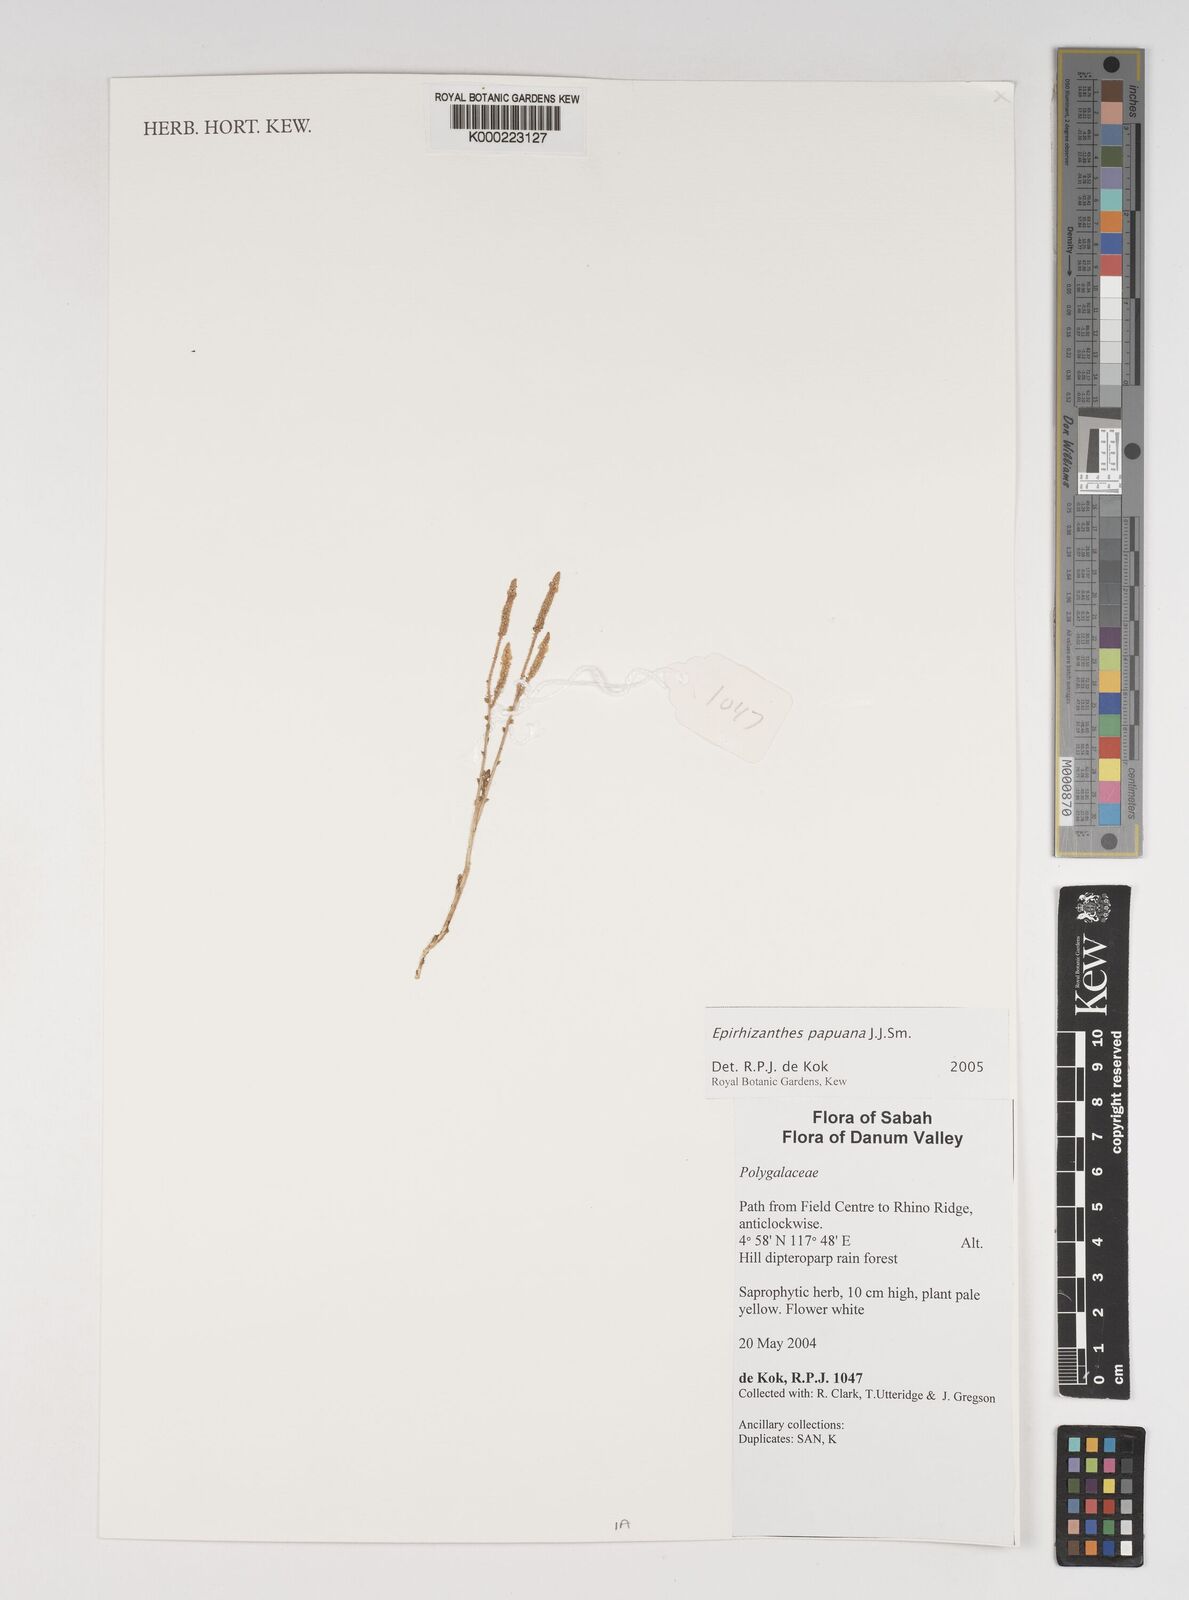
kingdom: Plantae
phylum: Tracheophyta
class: Magnoliopsida
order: Fabales
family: Polygalaceae
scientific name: Polygalaceae
